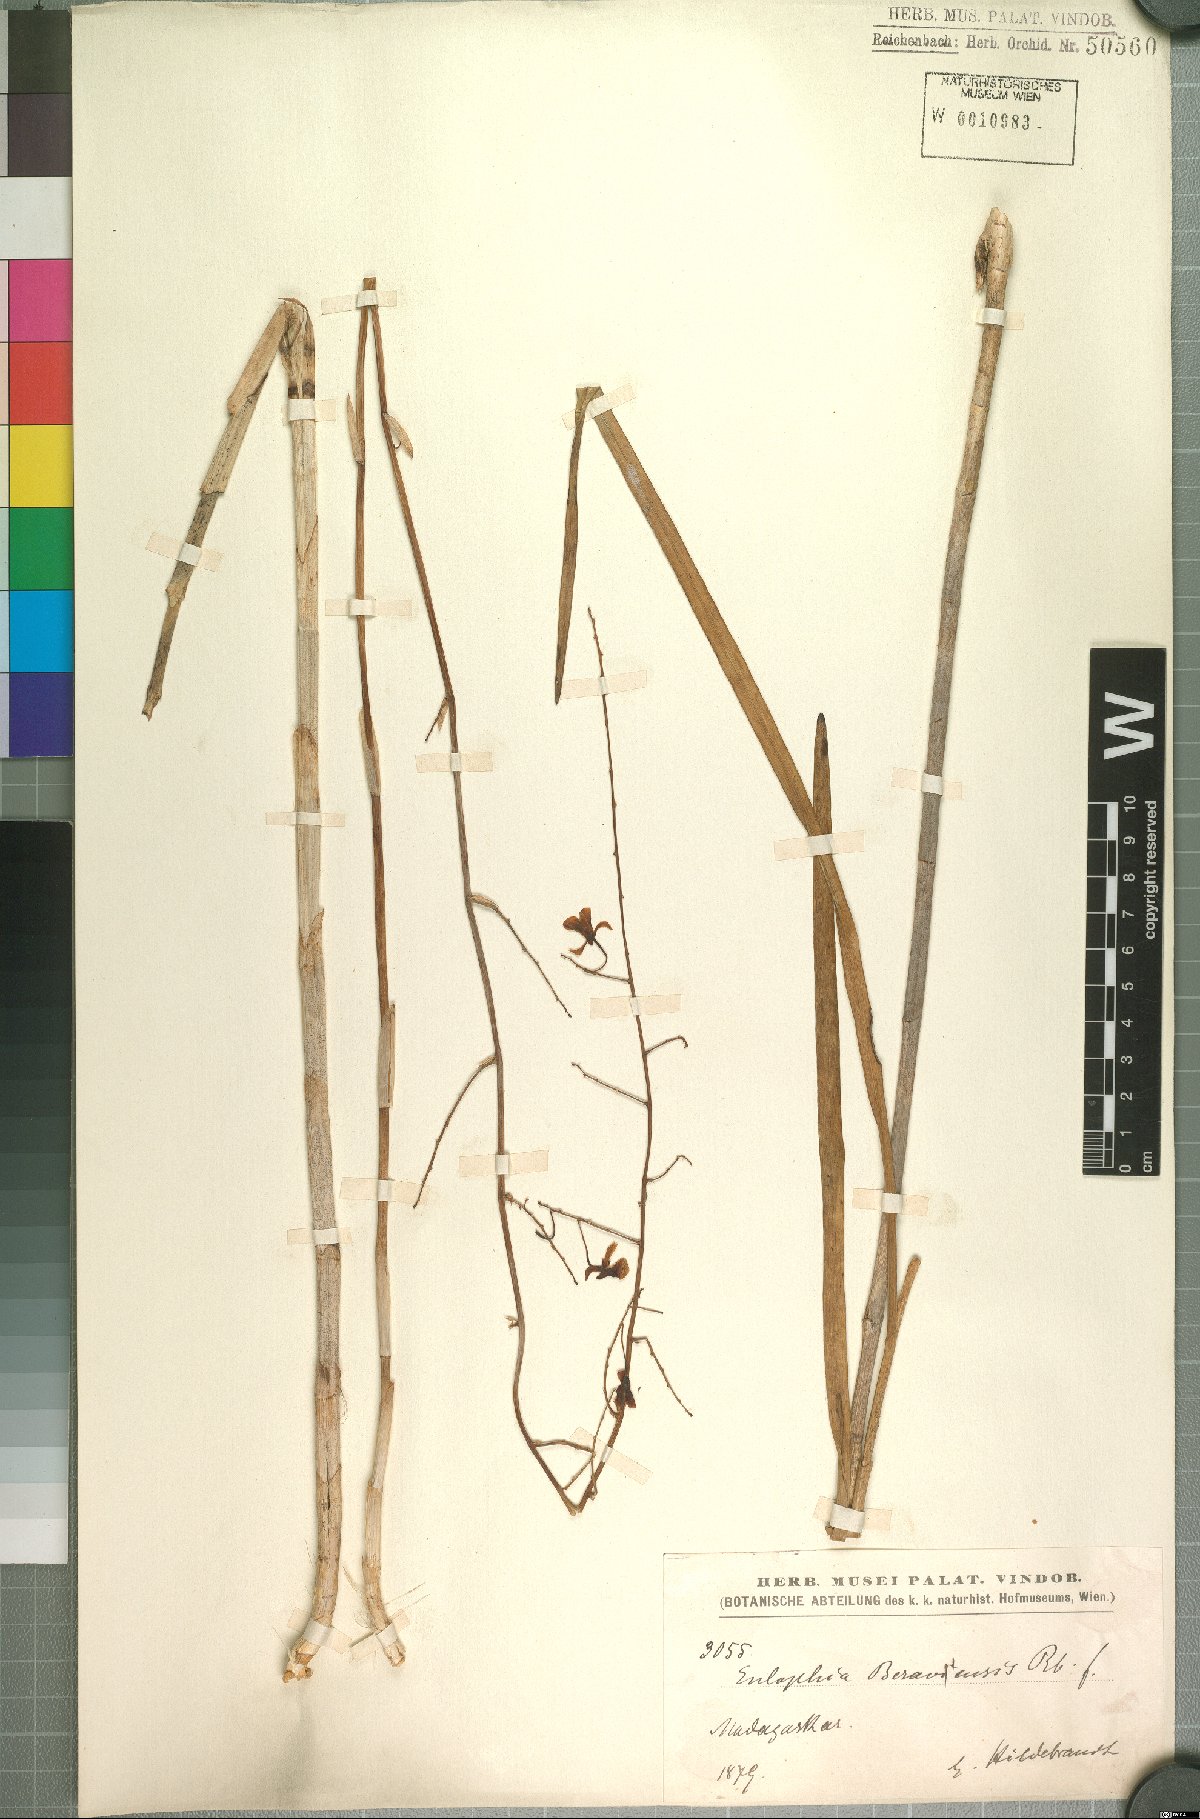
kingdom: Plantae
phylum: Tracheophyta
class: Liliopsida
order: Asparagales
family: Orchidaceae
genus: Eulophia
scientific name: Eulophia beravensis
